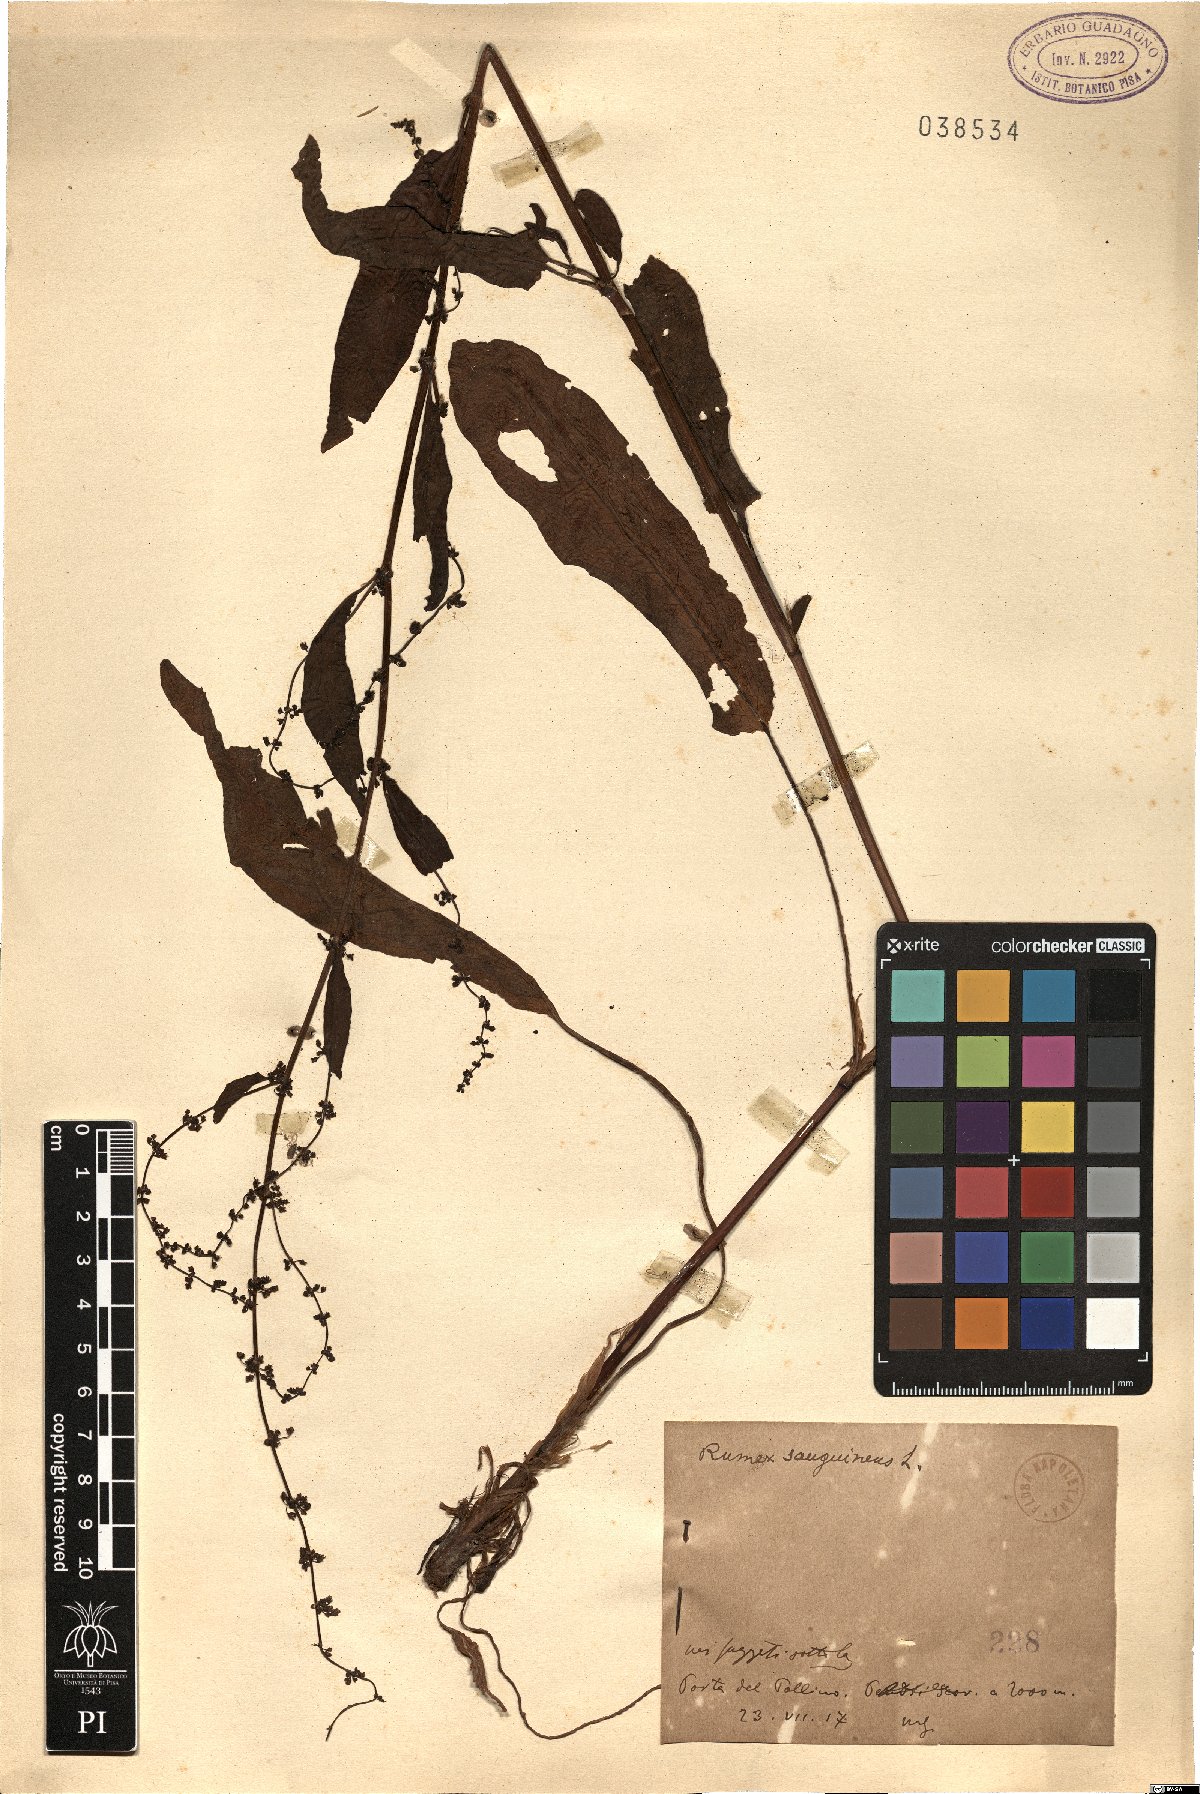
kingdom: Plantae
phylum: Tracheophyta
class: Magnoliopsida
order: Caryophyllales
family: Polygonaceae
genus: Rumex
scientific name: Rumex sanguineus
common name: Wood dock
